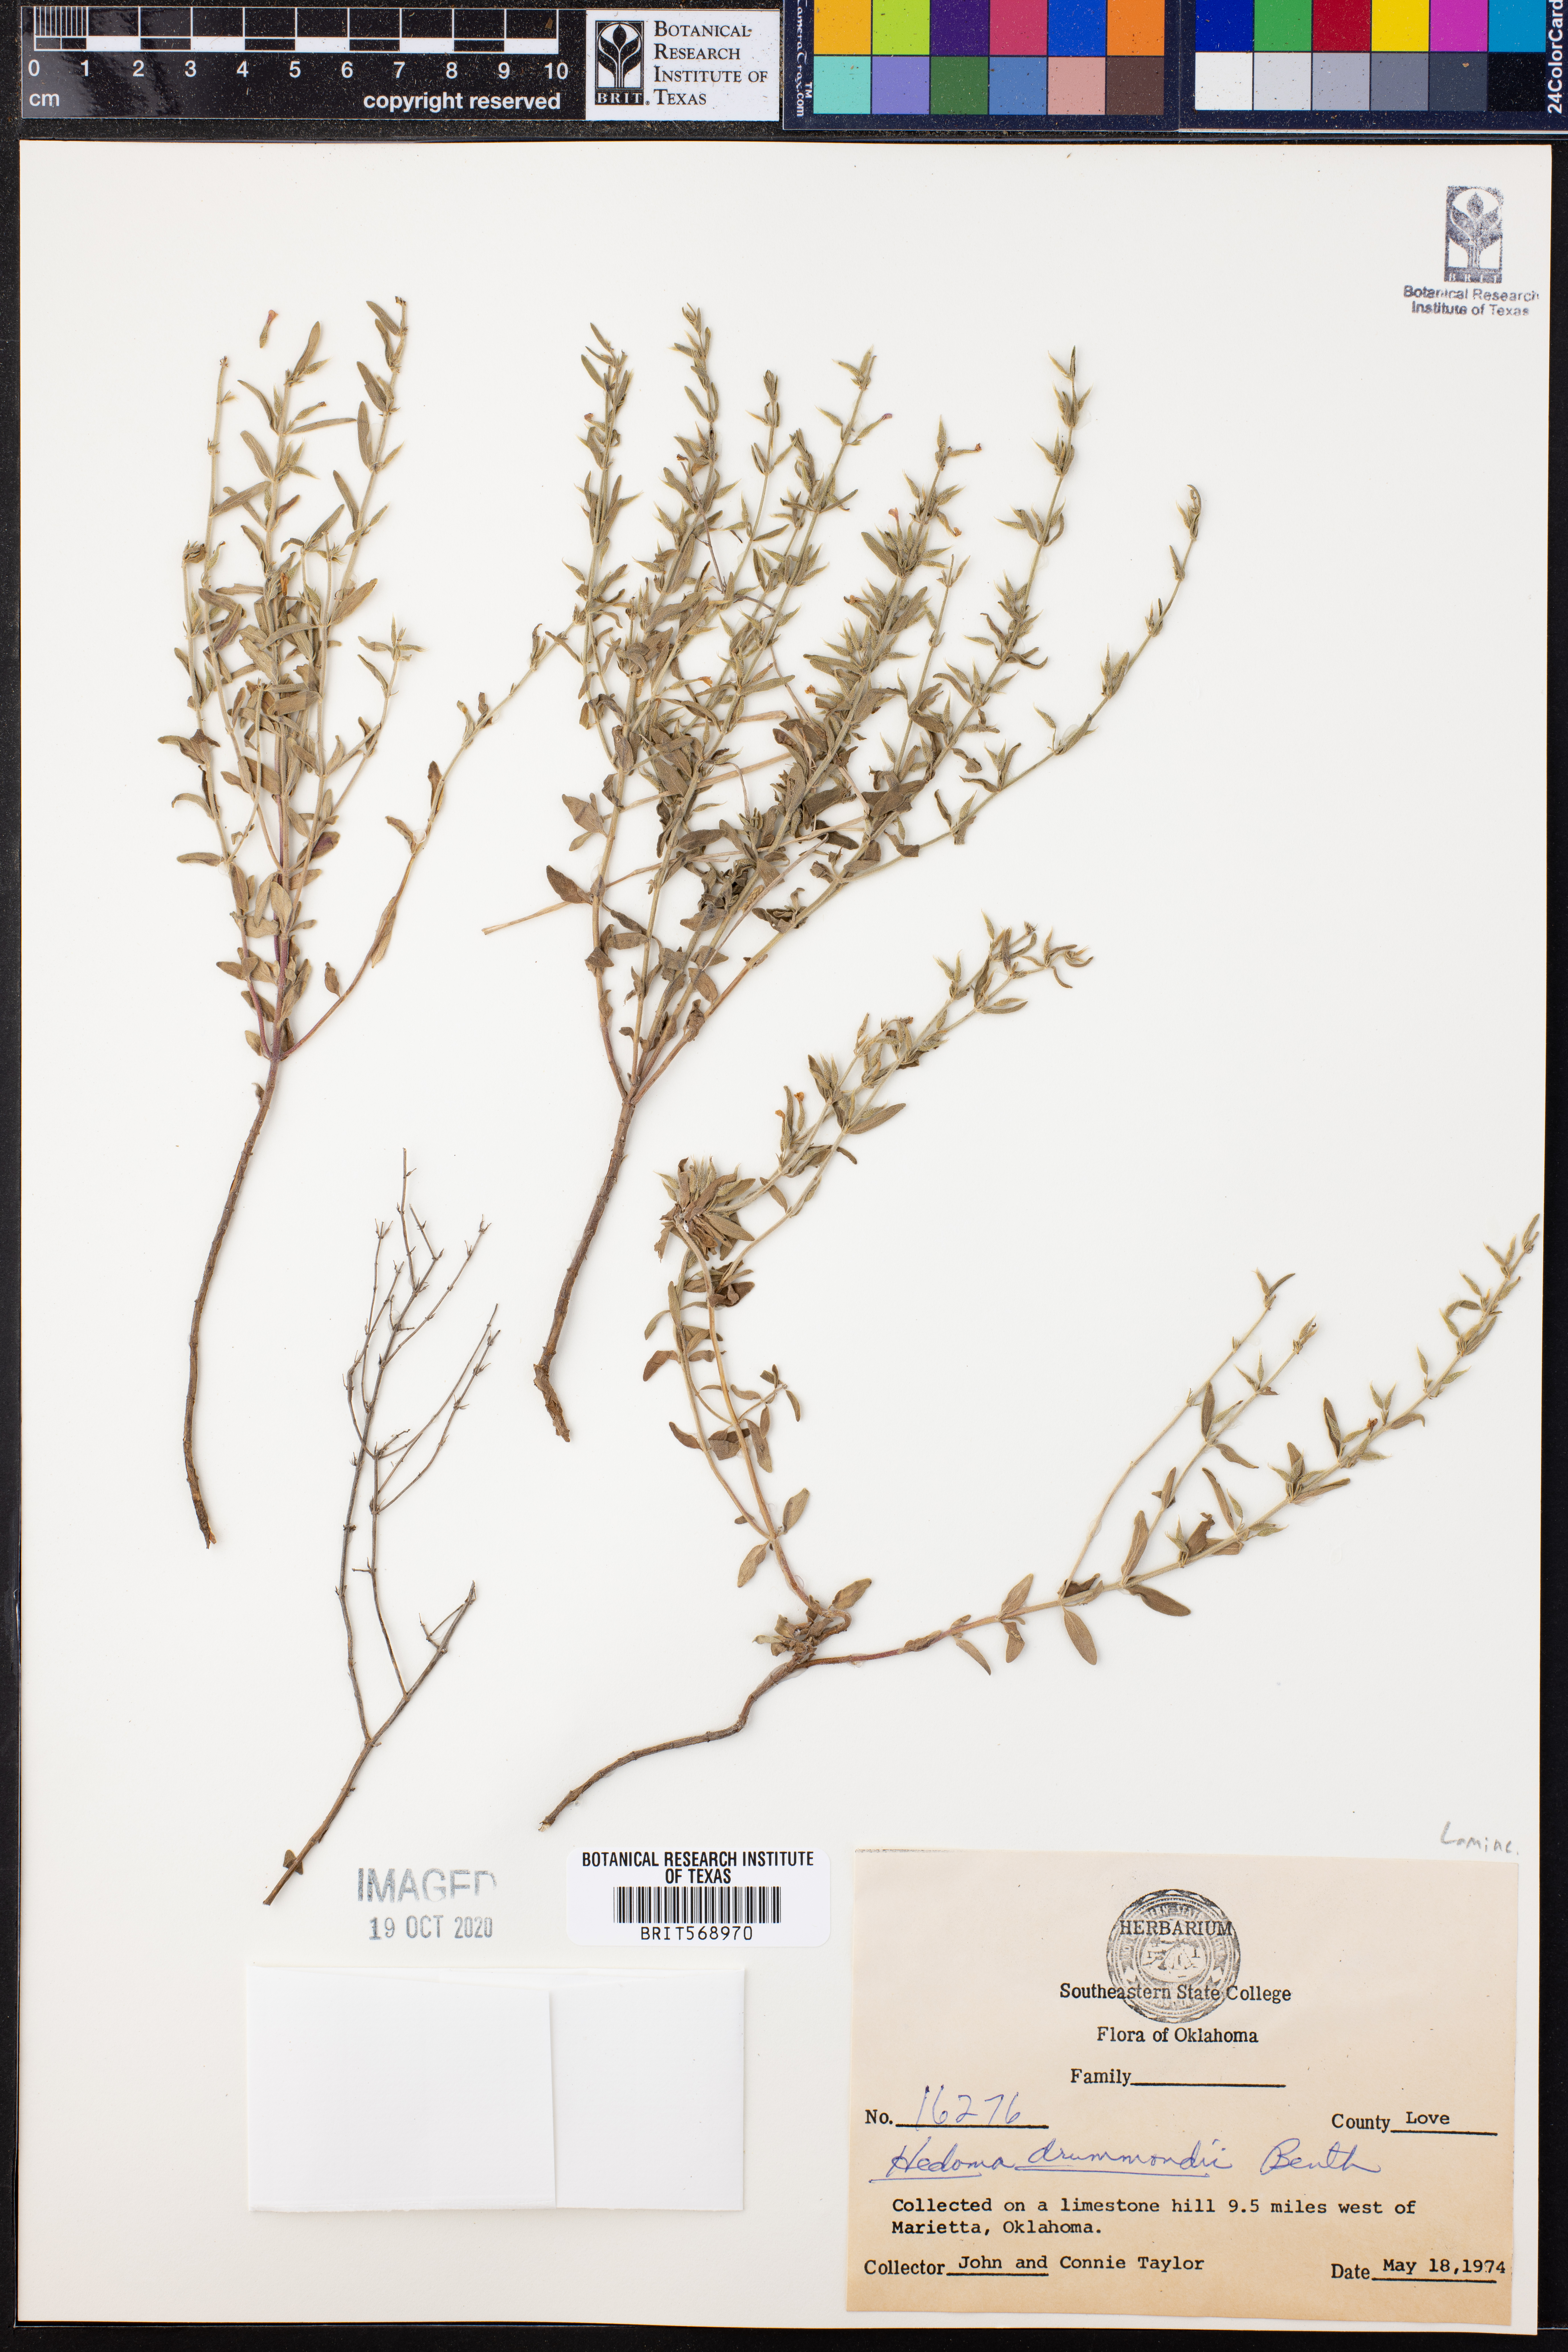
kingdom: Plantae
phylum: Tracheophyta
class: Magnoliopsida
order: Lamiales
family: Lamiaceae
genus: Hedeoma
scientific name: Hedeoma drummondii
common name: New mexico pennyroyal
